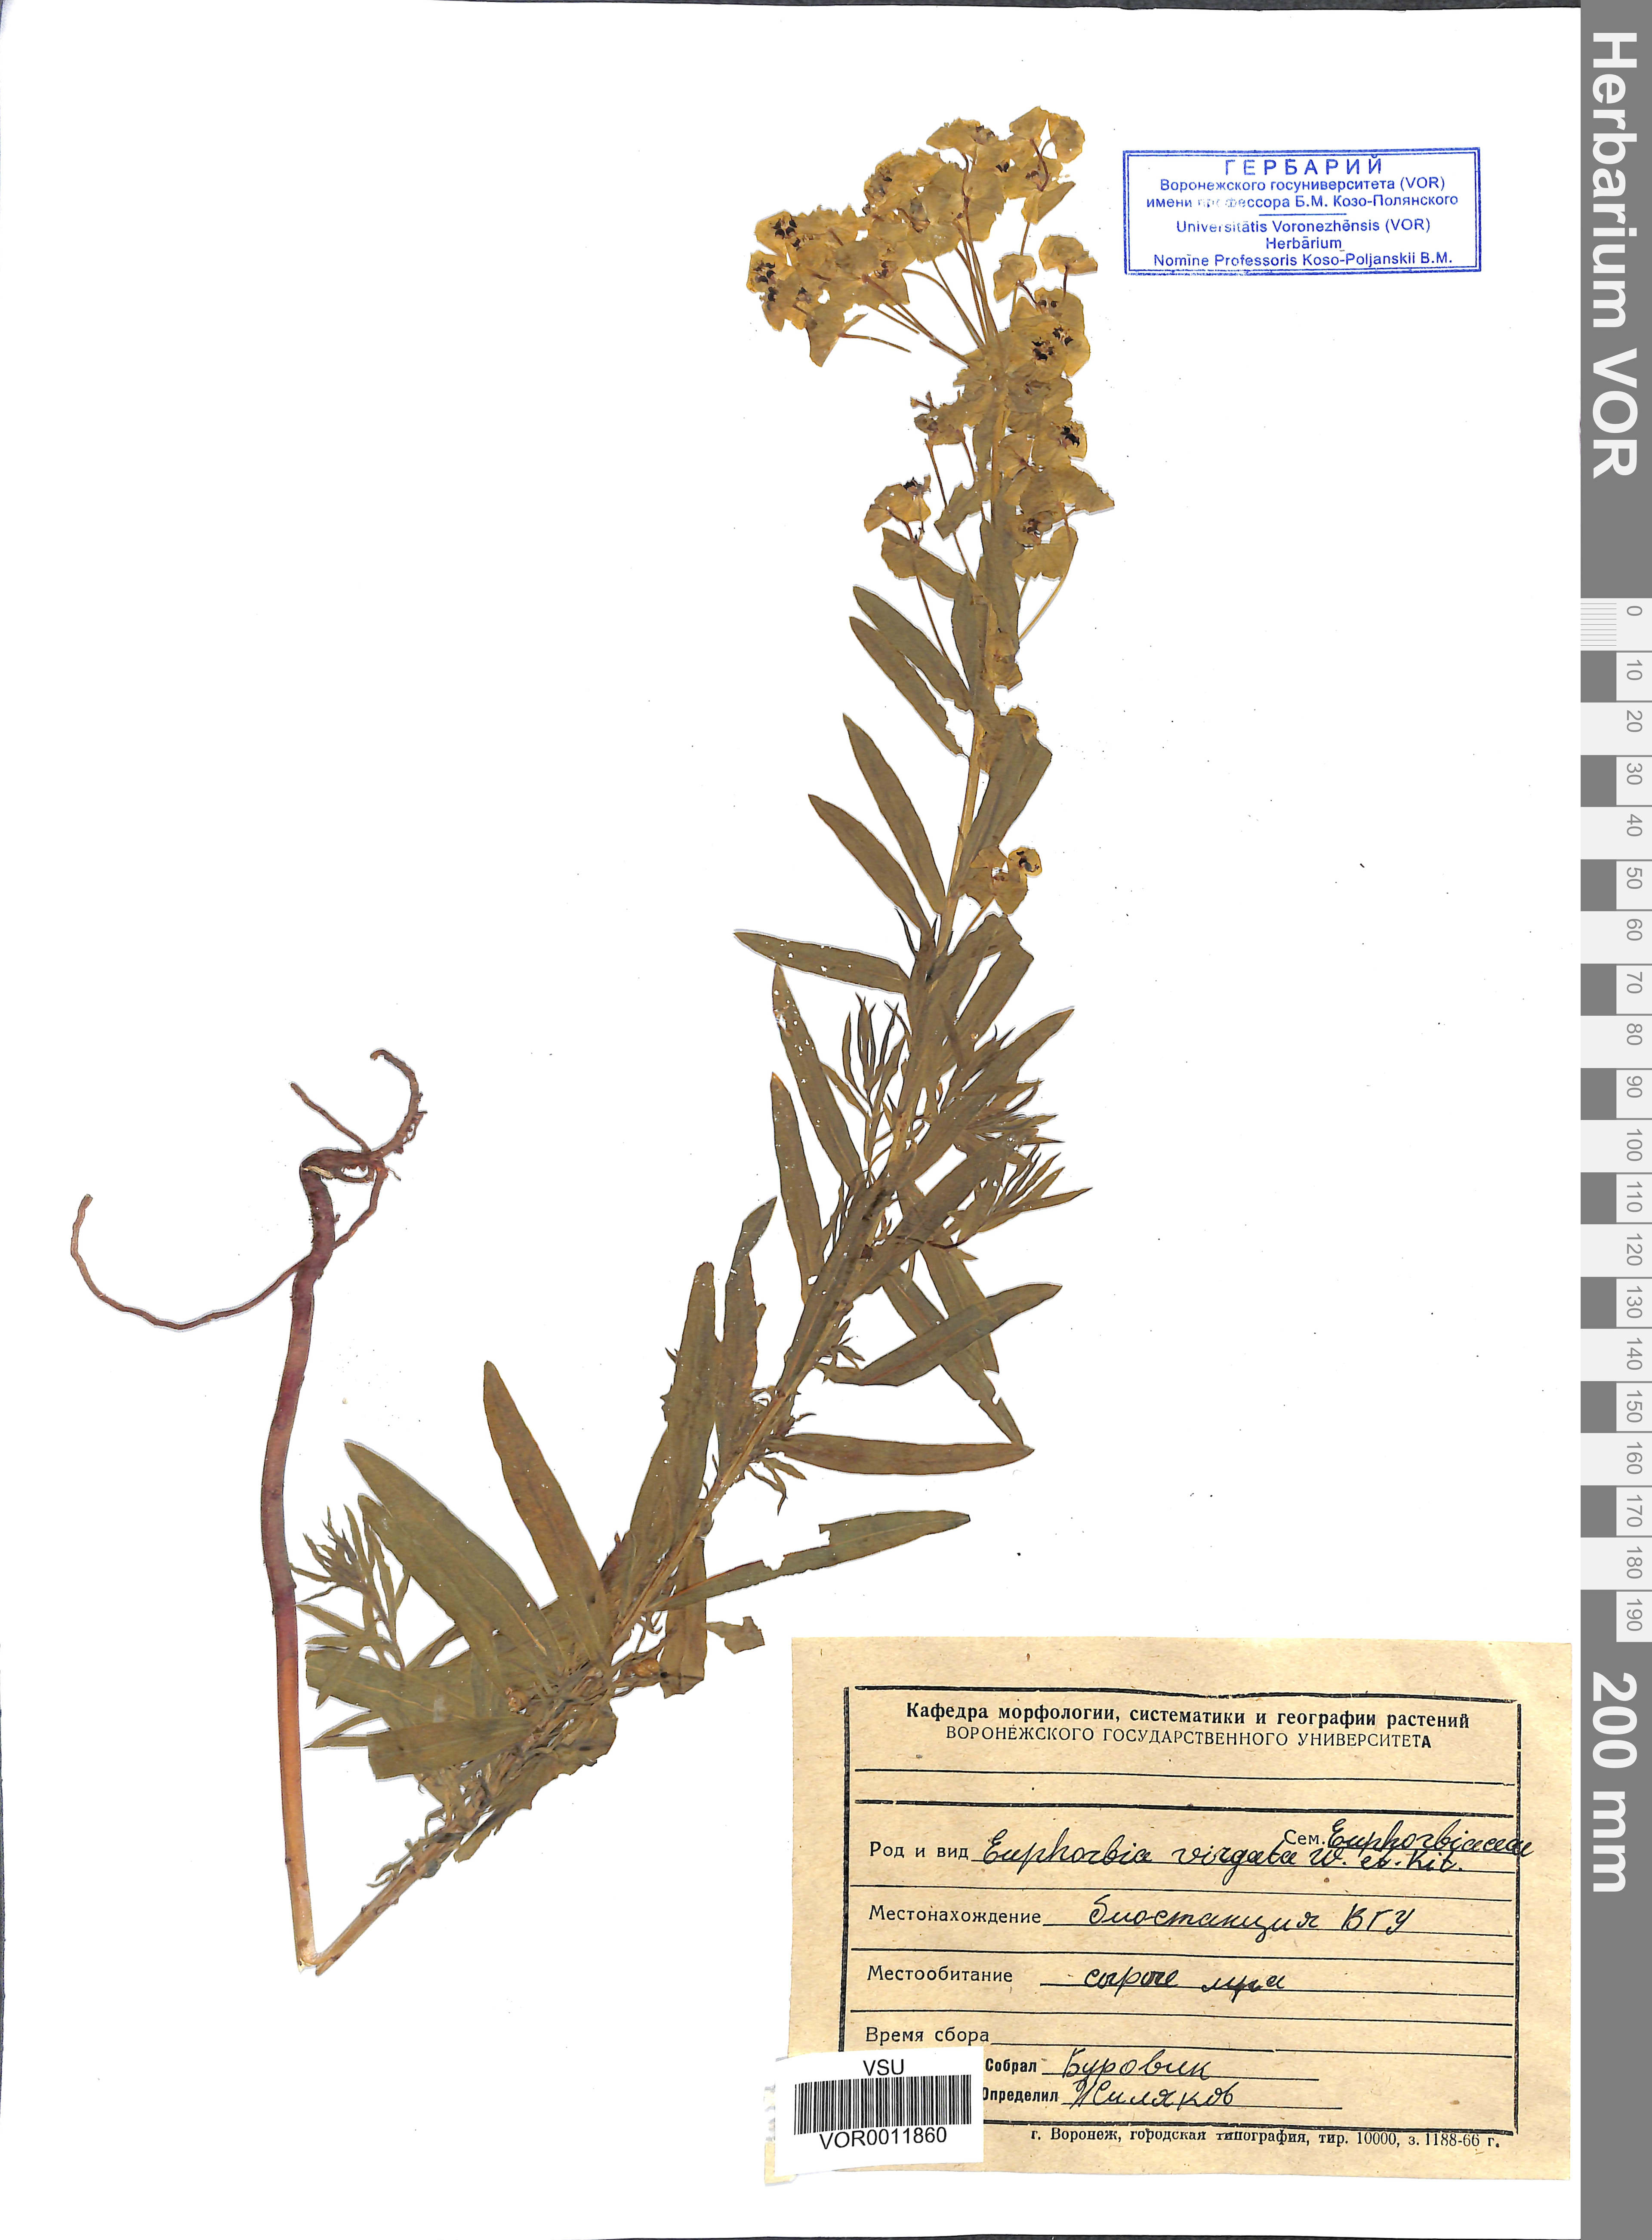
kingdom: Plantae
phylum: Tracheophyta
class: Magnoliopsida
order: Malpighiales
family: Euphorbiaceae
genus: Euphorbia
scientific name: Euphorbia virgata
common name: Leafy spurge
